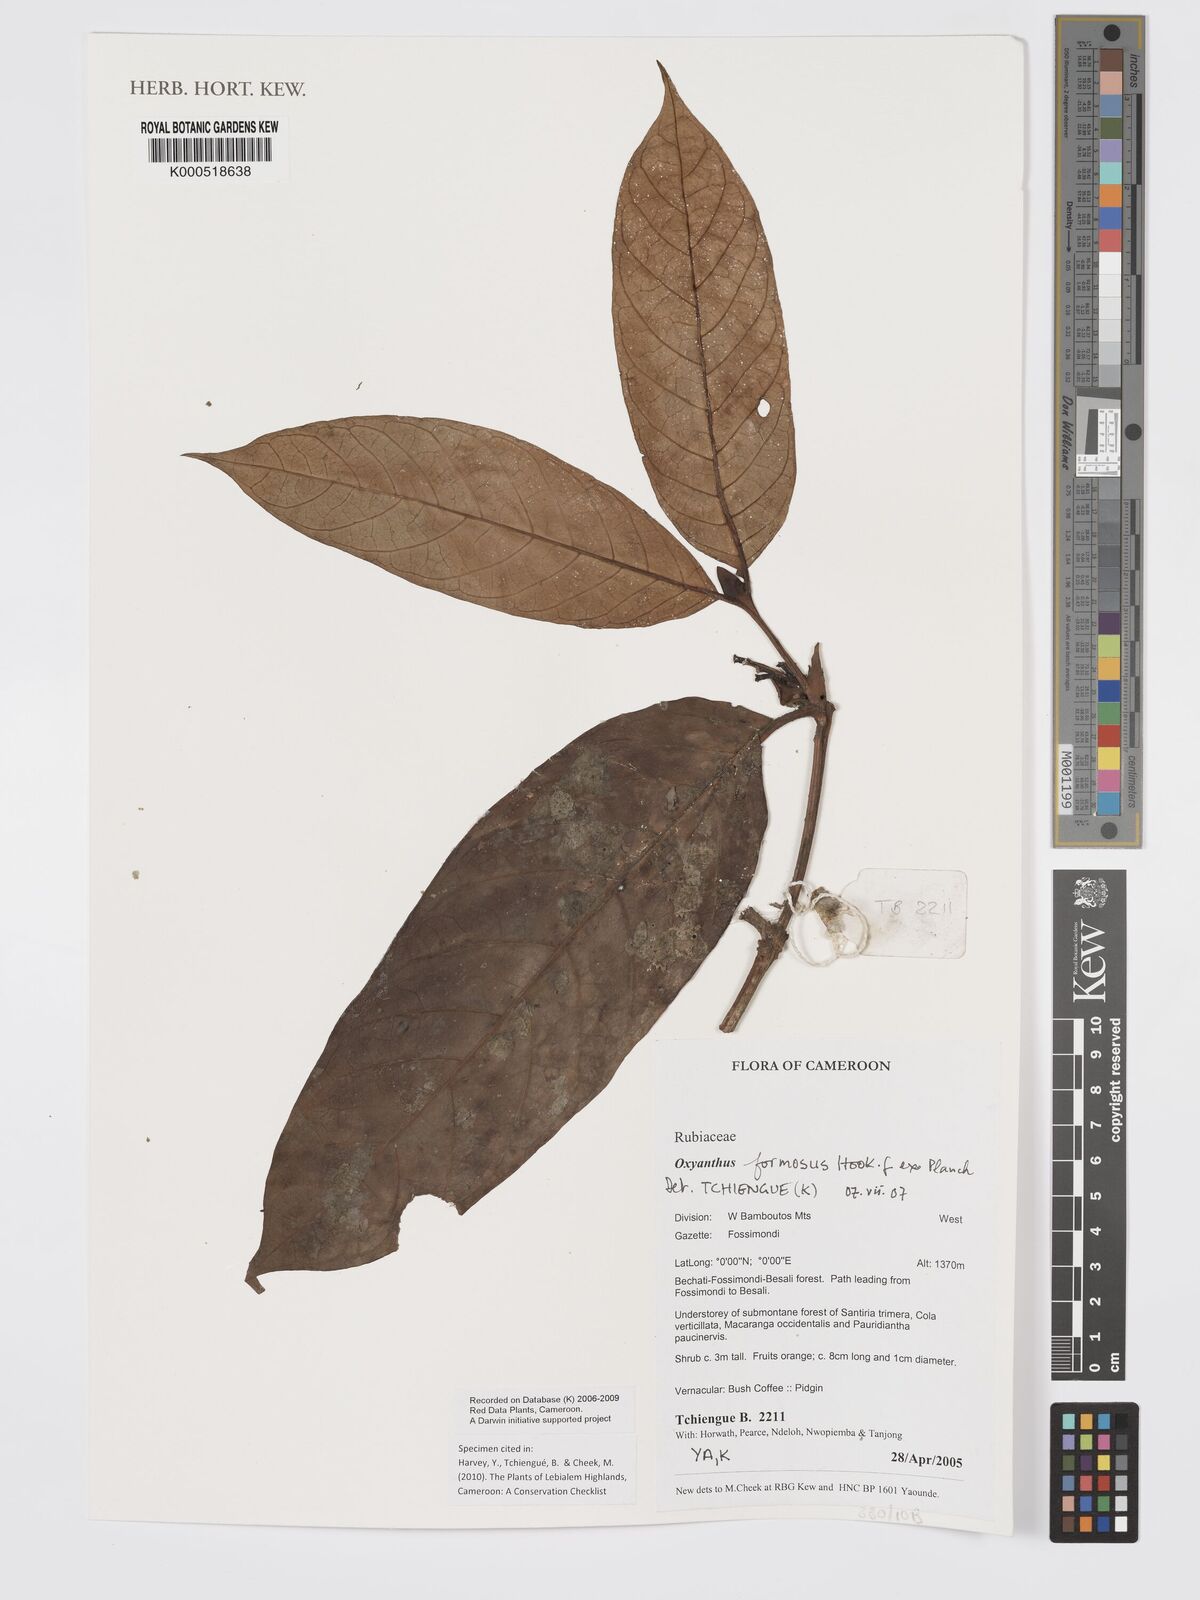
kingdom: Plantae
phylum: Tracheophyta
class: Magnoliopsida
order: Gentianales
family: Rubiaceae
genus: Oxyanthus
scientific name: Oxyanthus
